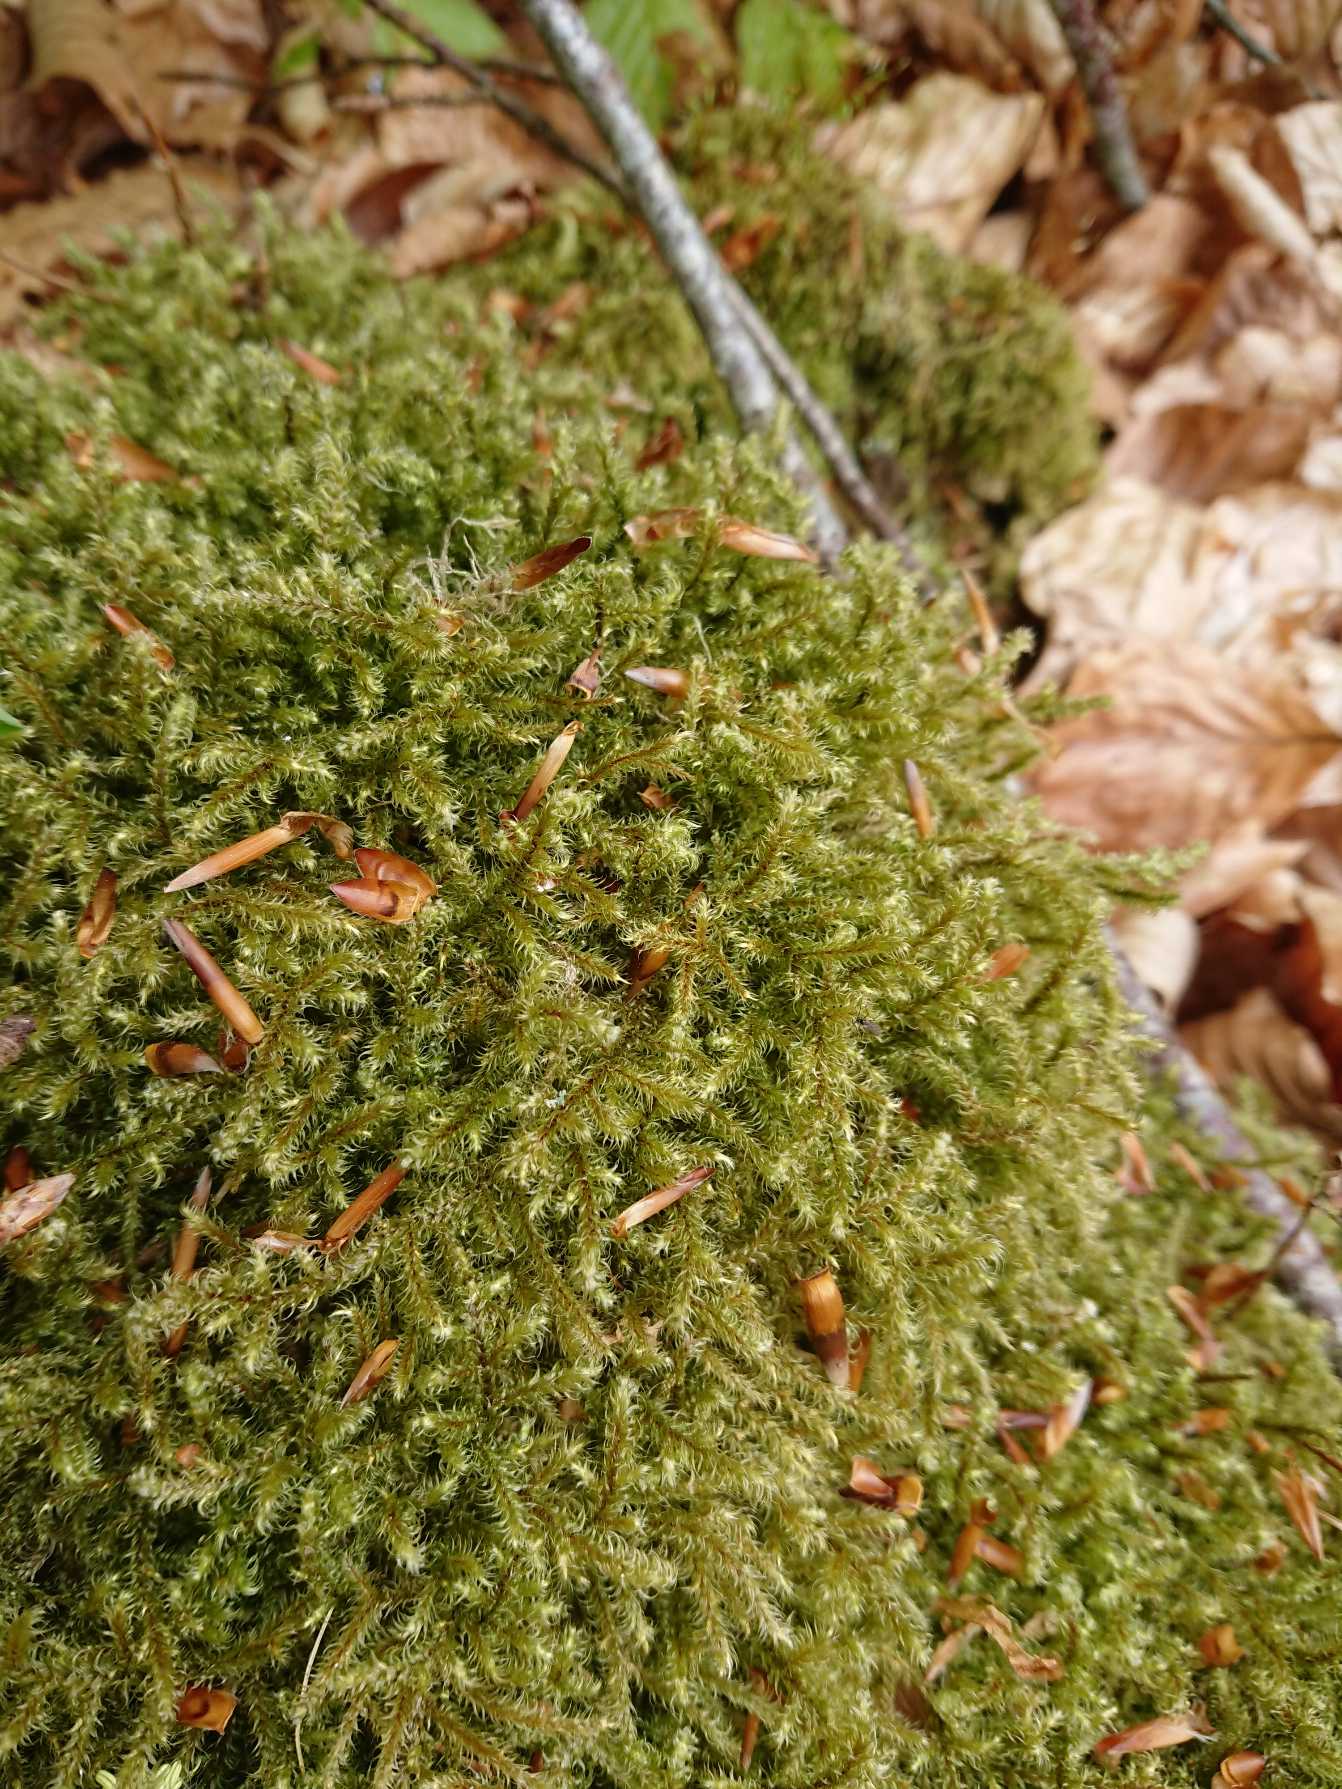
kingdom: Plantae
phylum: Bryophyta
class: Bryopsida
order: Hypnales
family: Hylocomiaceae
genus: Rhytidiadelphus
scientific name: Rhytidiadelphus loreus
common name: Ulvefod-kransemos
